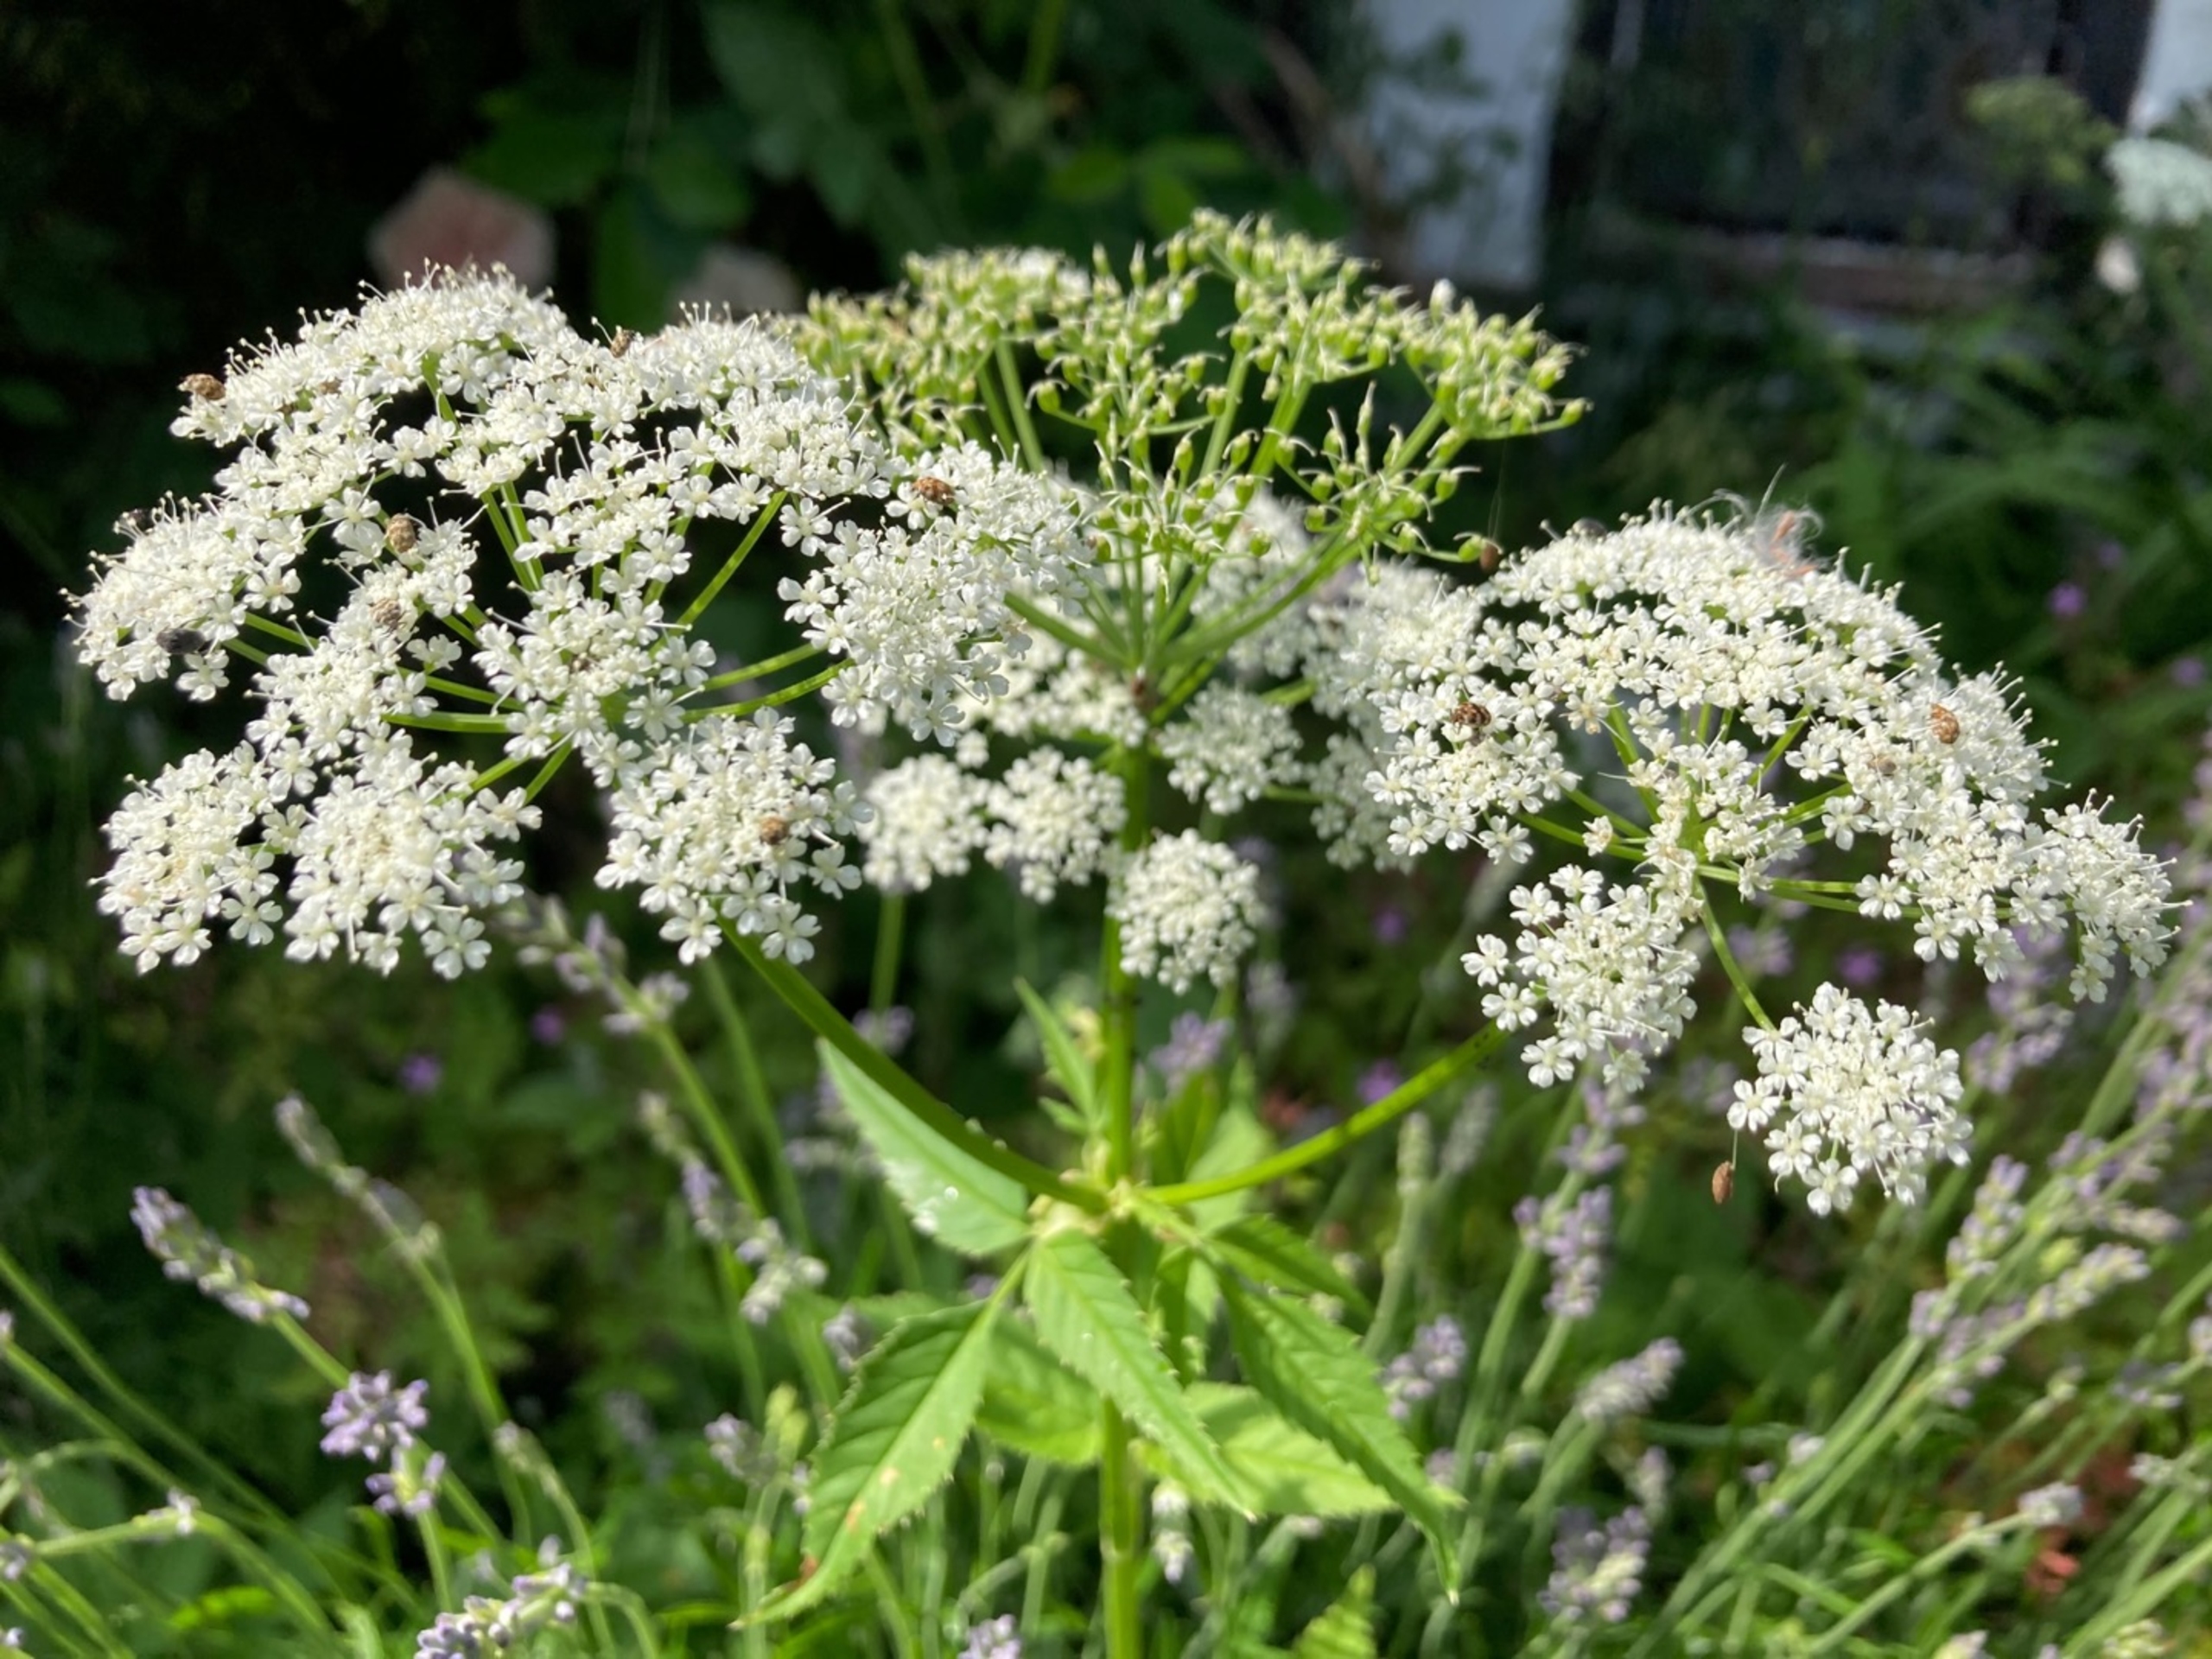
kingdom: Plantae
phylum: Tracheophyta
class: Magnoliopsida
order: Apiales
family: Apiaceae
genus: Aegopodium
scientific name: Aegopodium podagraria
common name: Skvalderkål
